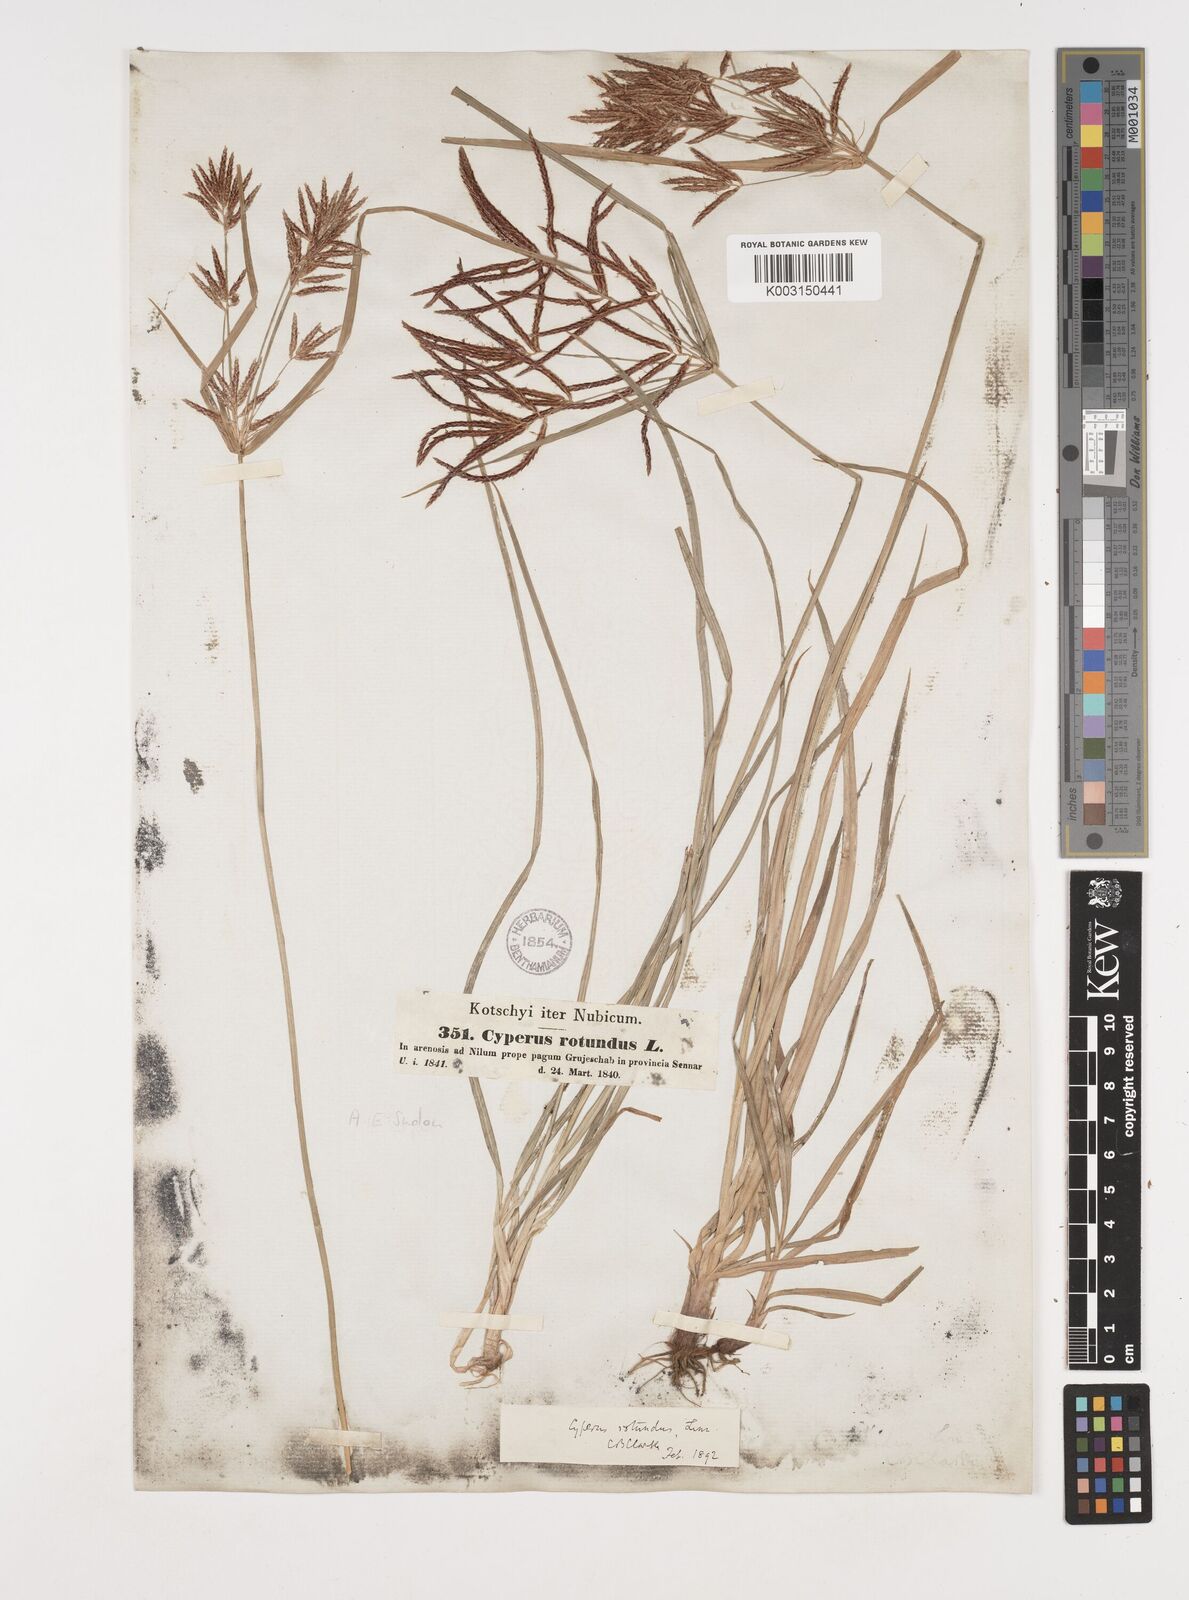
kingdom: Plantae
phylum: Tracheophyta
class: Liliopsida
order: Poales
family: Cyperaceae
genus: Cyperus
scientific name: Cyperus rotundus
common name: Nutgrass
